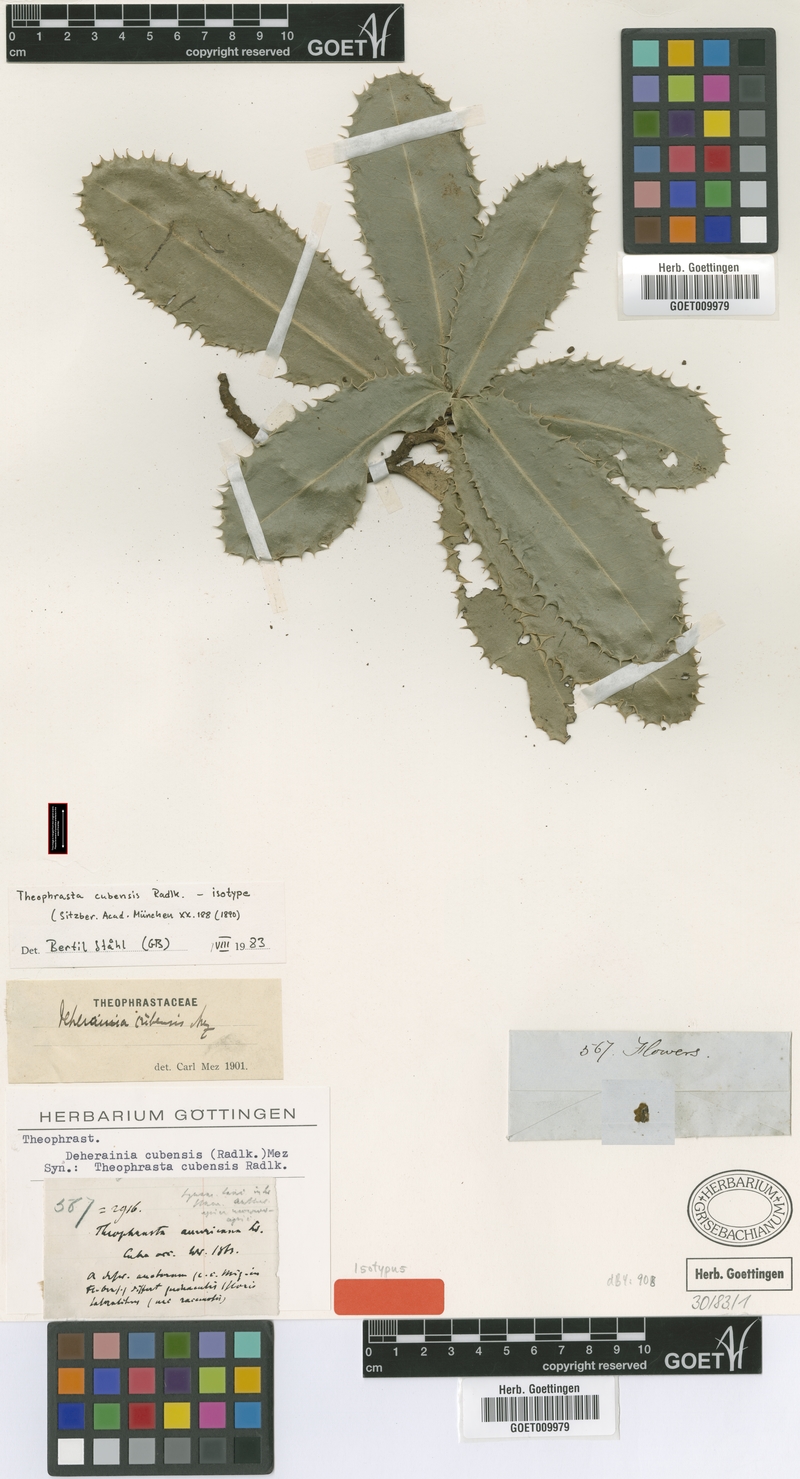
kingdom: Plantae
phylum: Tracheophyta
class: Magnoliopsida
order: Ericales
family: Primulaceae
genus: Neomezia
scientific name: Neomezia cubensis
